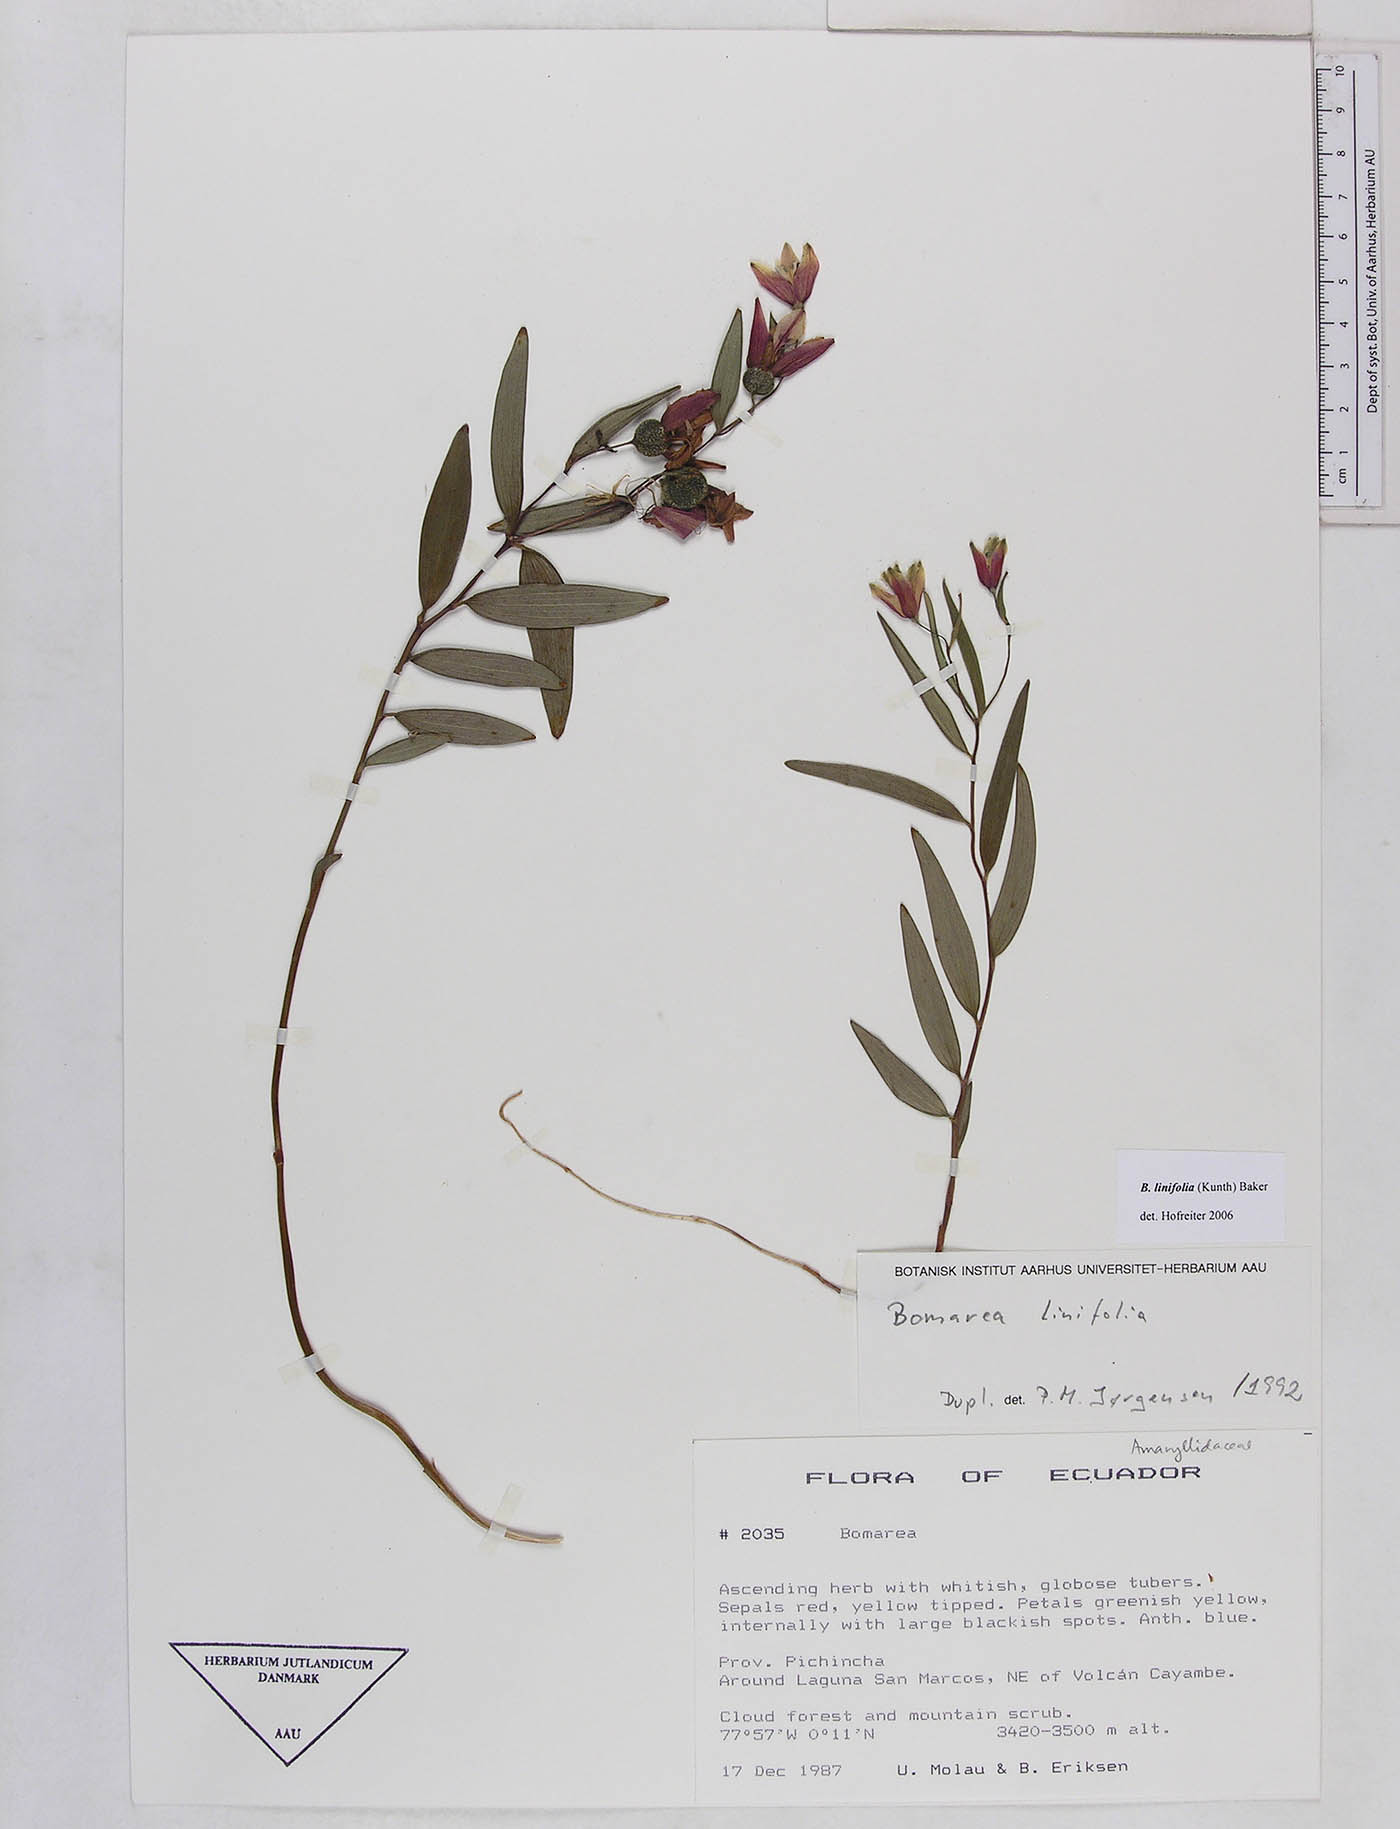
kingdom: Plantae
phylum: Tracheophyta
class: Liliopsida
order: Liliales
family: Alstroemeriaceae
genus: Bomarea
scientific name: Bomarea linifolia
